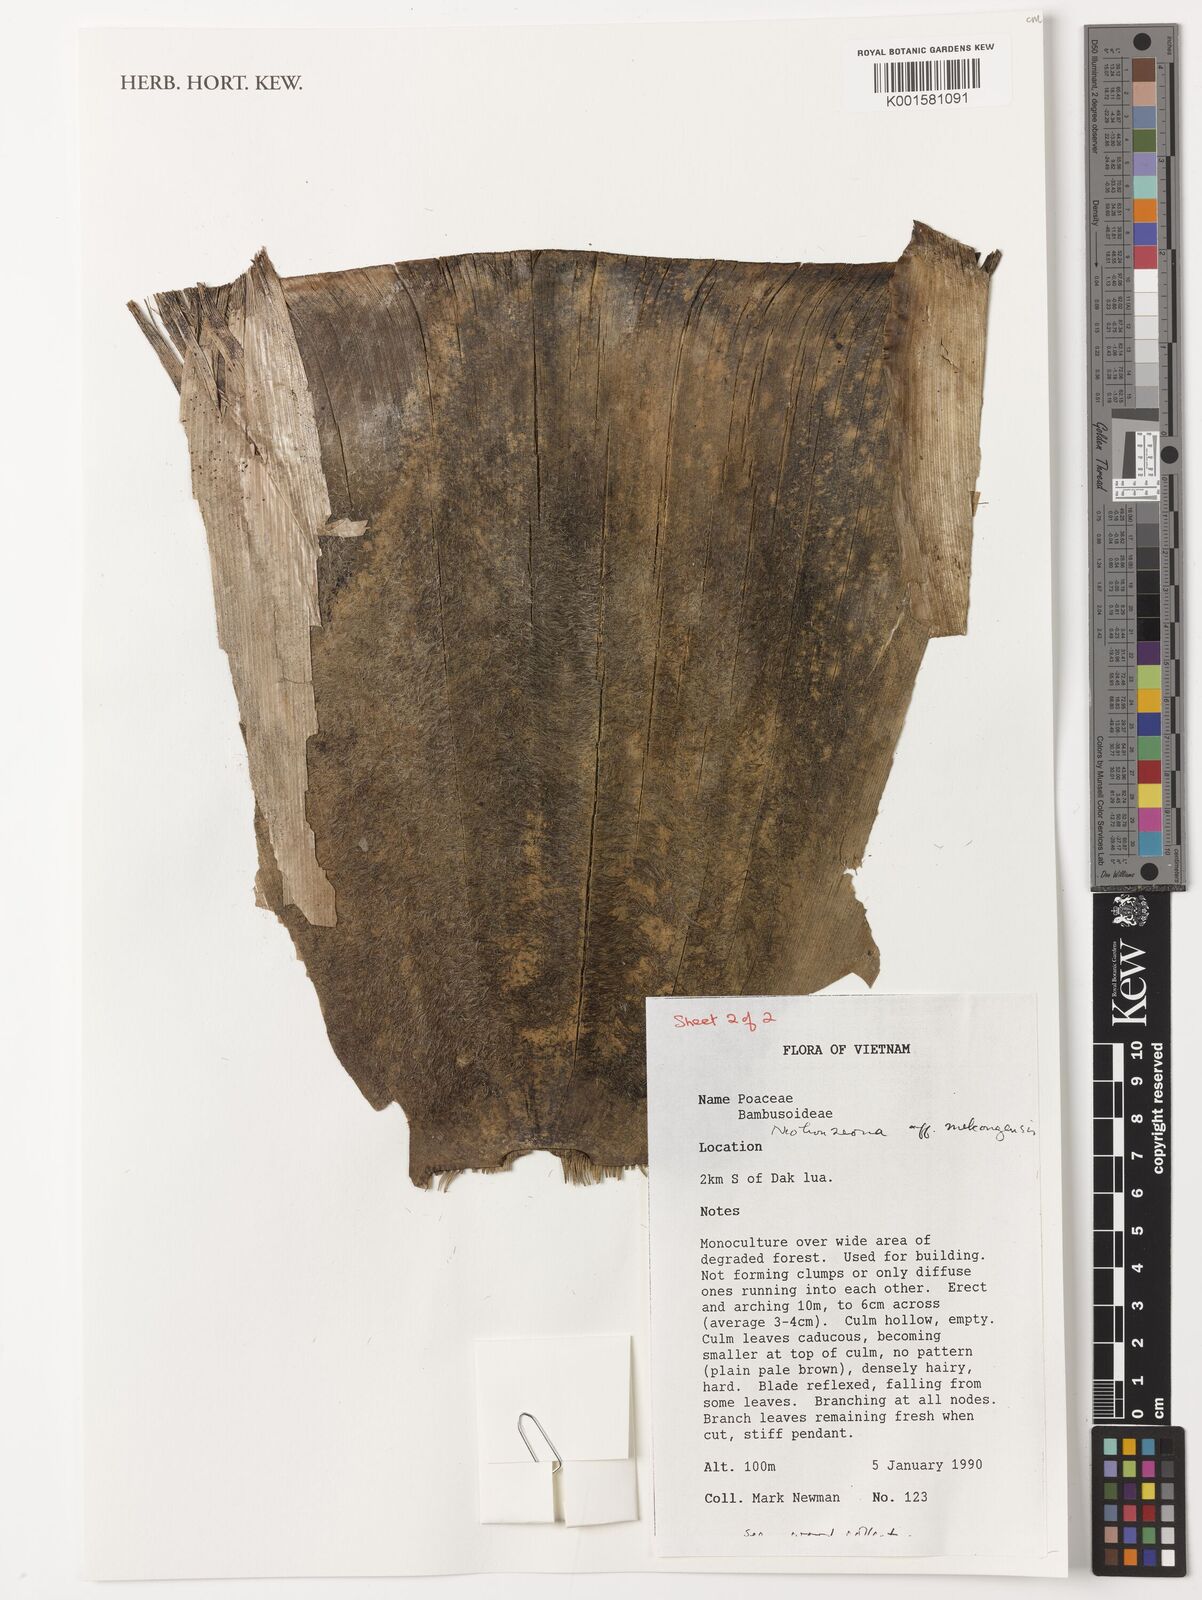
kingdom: Plantae
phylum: Tracheophyta
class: Liliopsida
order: Poales
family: Poaceae
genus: Schizostachyum
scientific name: Schizostachyum mekongensis
